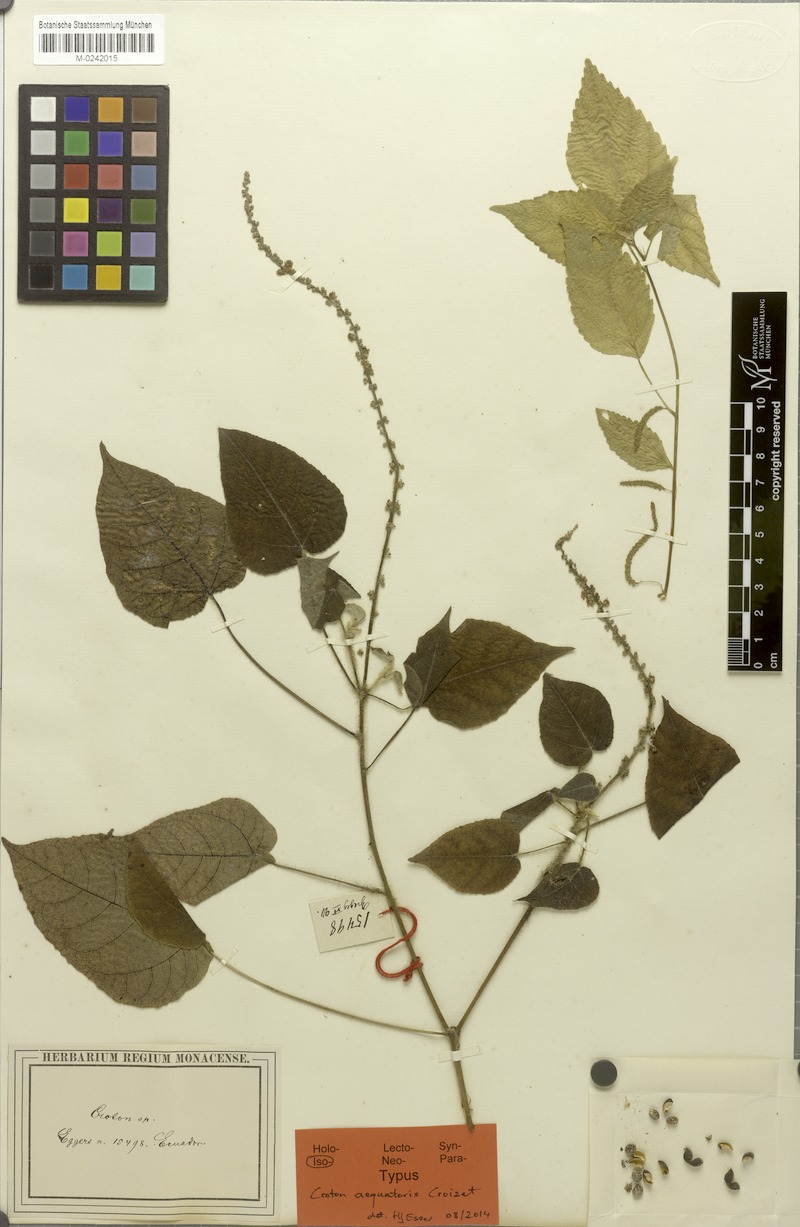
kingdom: Plantae
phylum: Tracheophyta
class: Magnoliopsida
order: Malpighiales
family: Euphorbiaceae
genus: Croton
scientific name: Croton aequatoris
